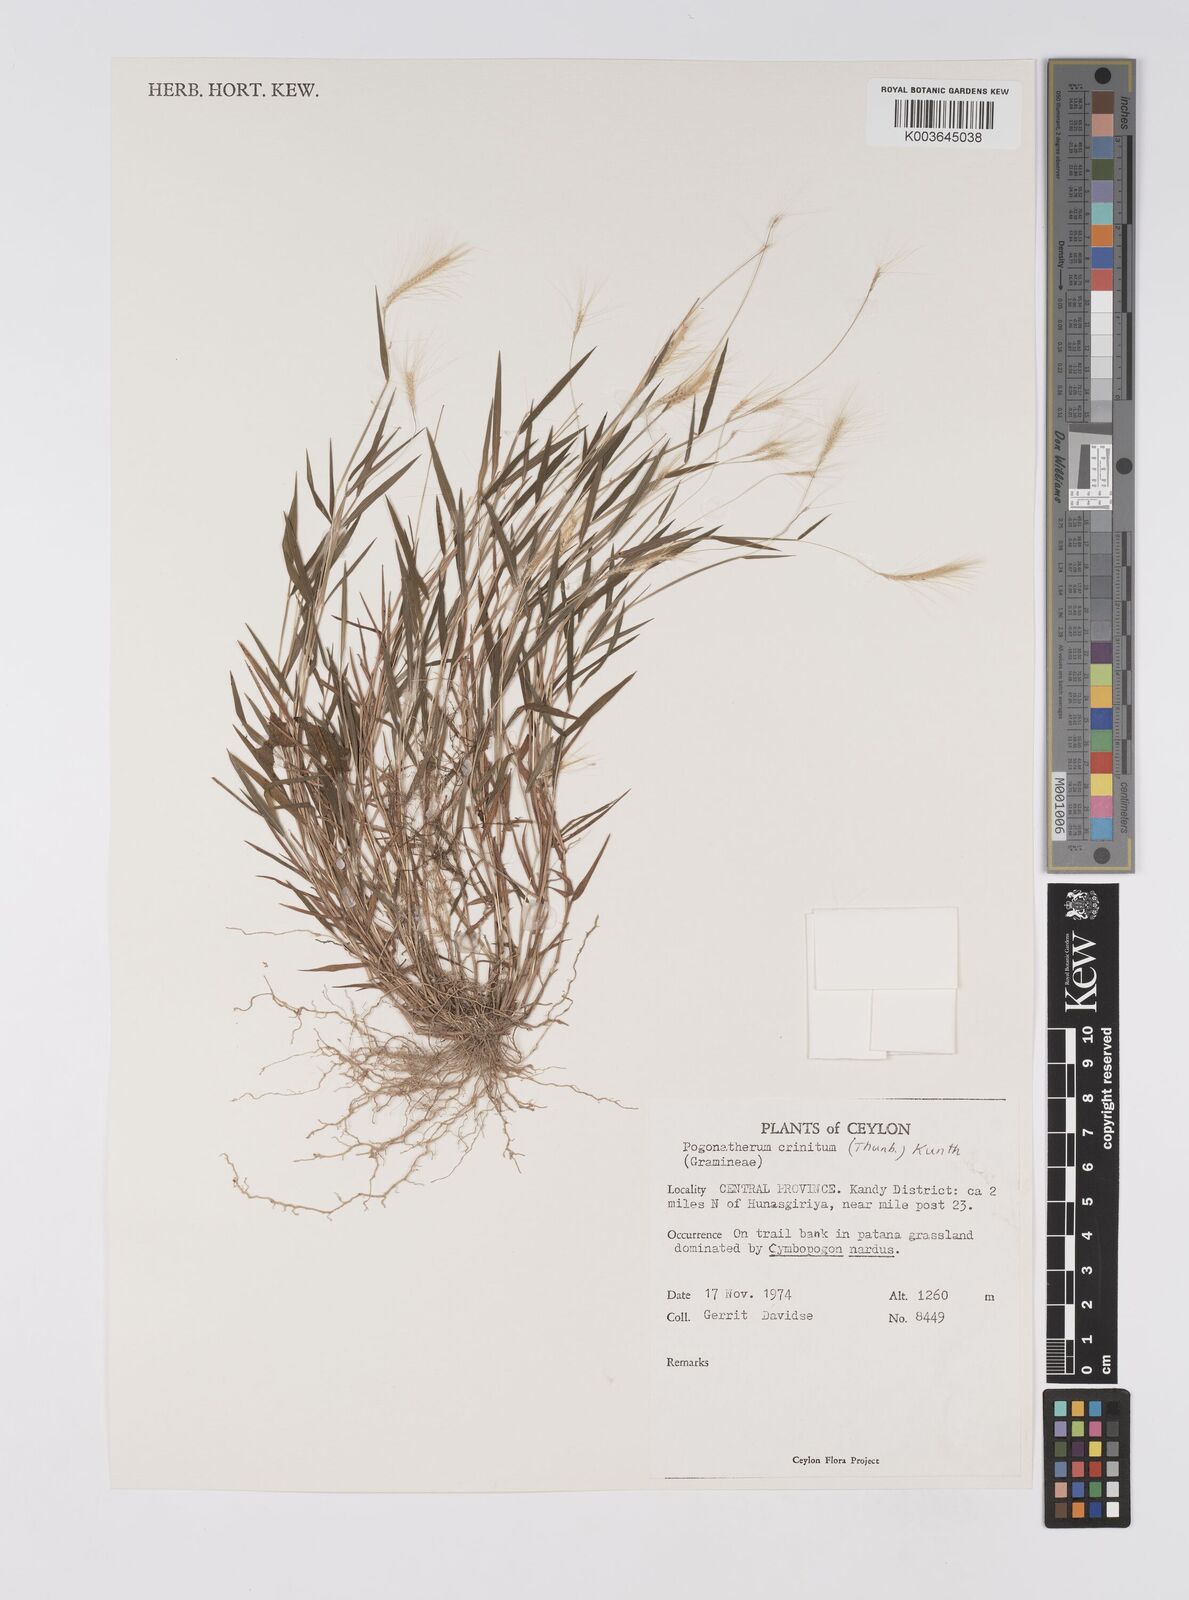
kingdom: Plantae
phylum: Tracheophyta
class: Liliopsida
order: Poales
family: Poaceae
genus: Pogonatherum
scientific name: Pogonatherum crinitum
